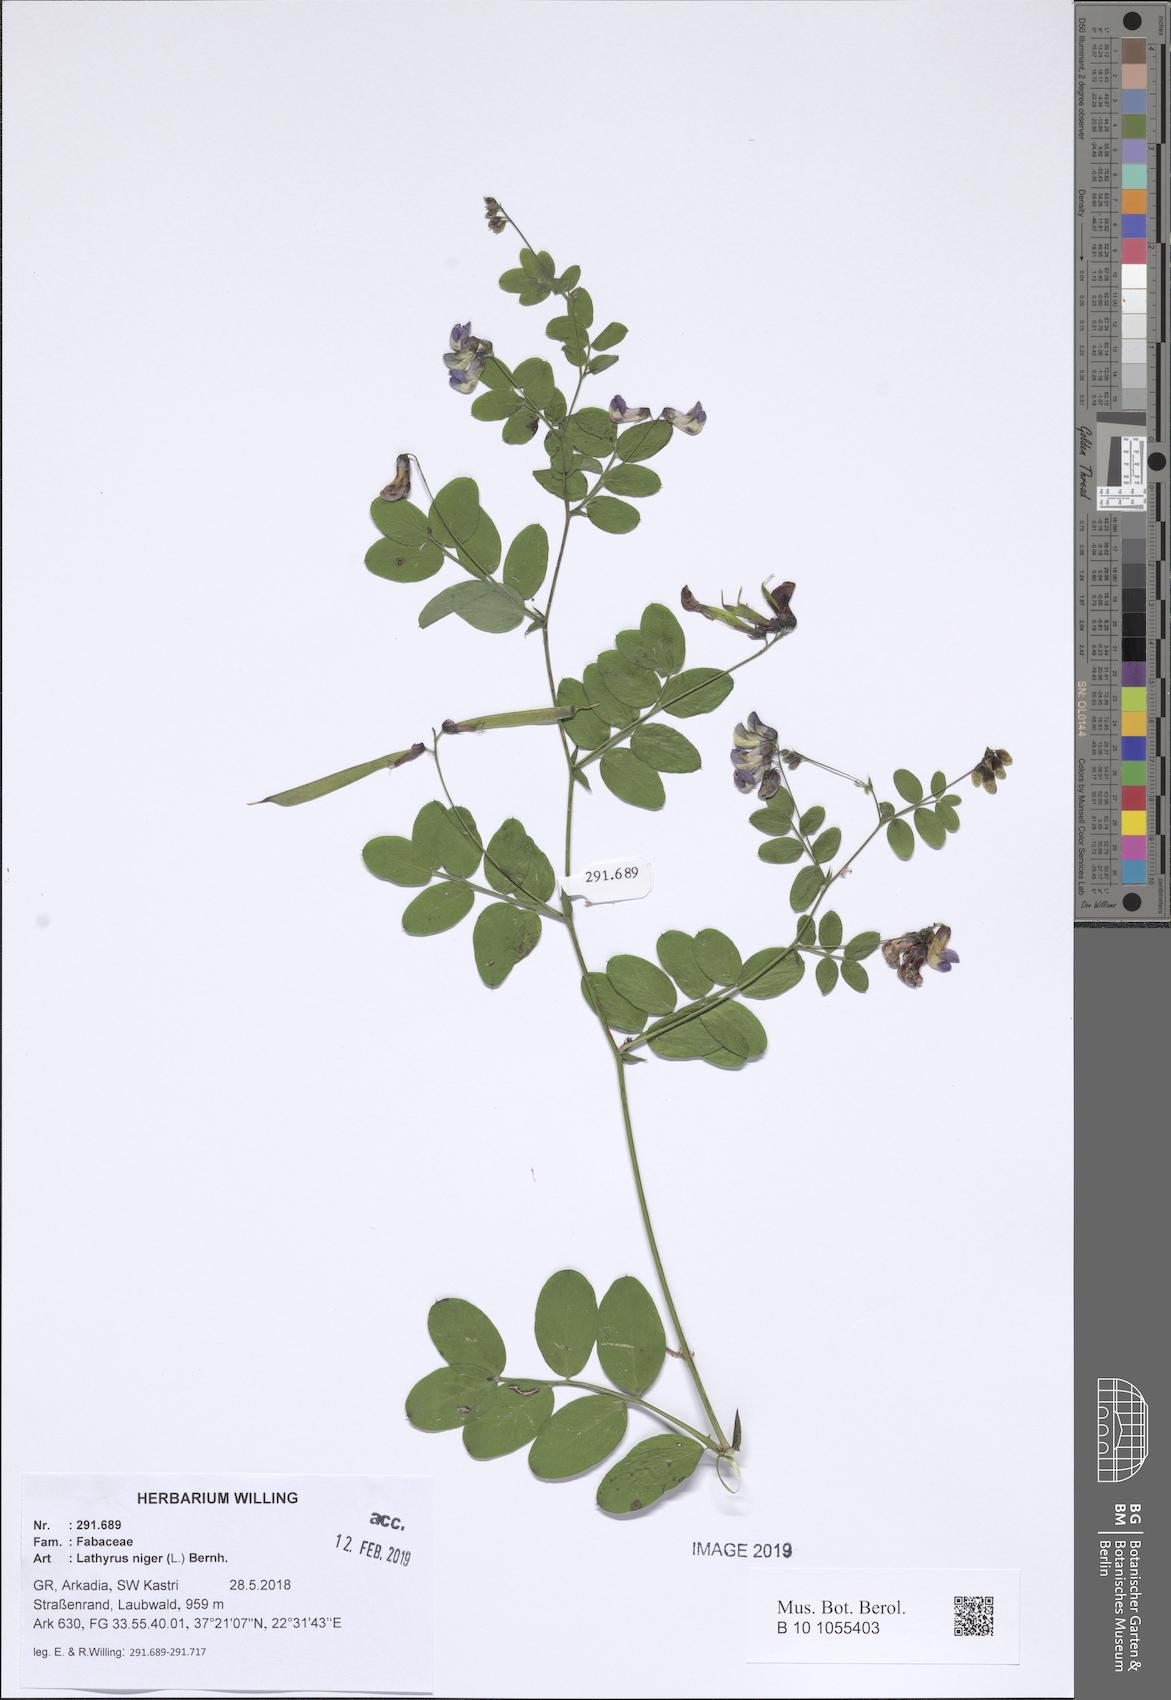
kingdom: Plantae
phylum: Tracheophyta
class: Magnoliopsida
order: Fabales
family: Fabaceae
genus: Lathyrus
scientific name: Lathyrus niger
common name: Black pea
